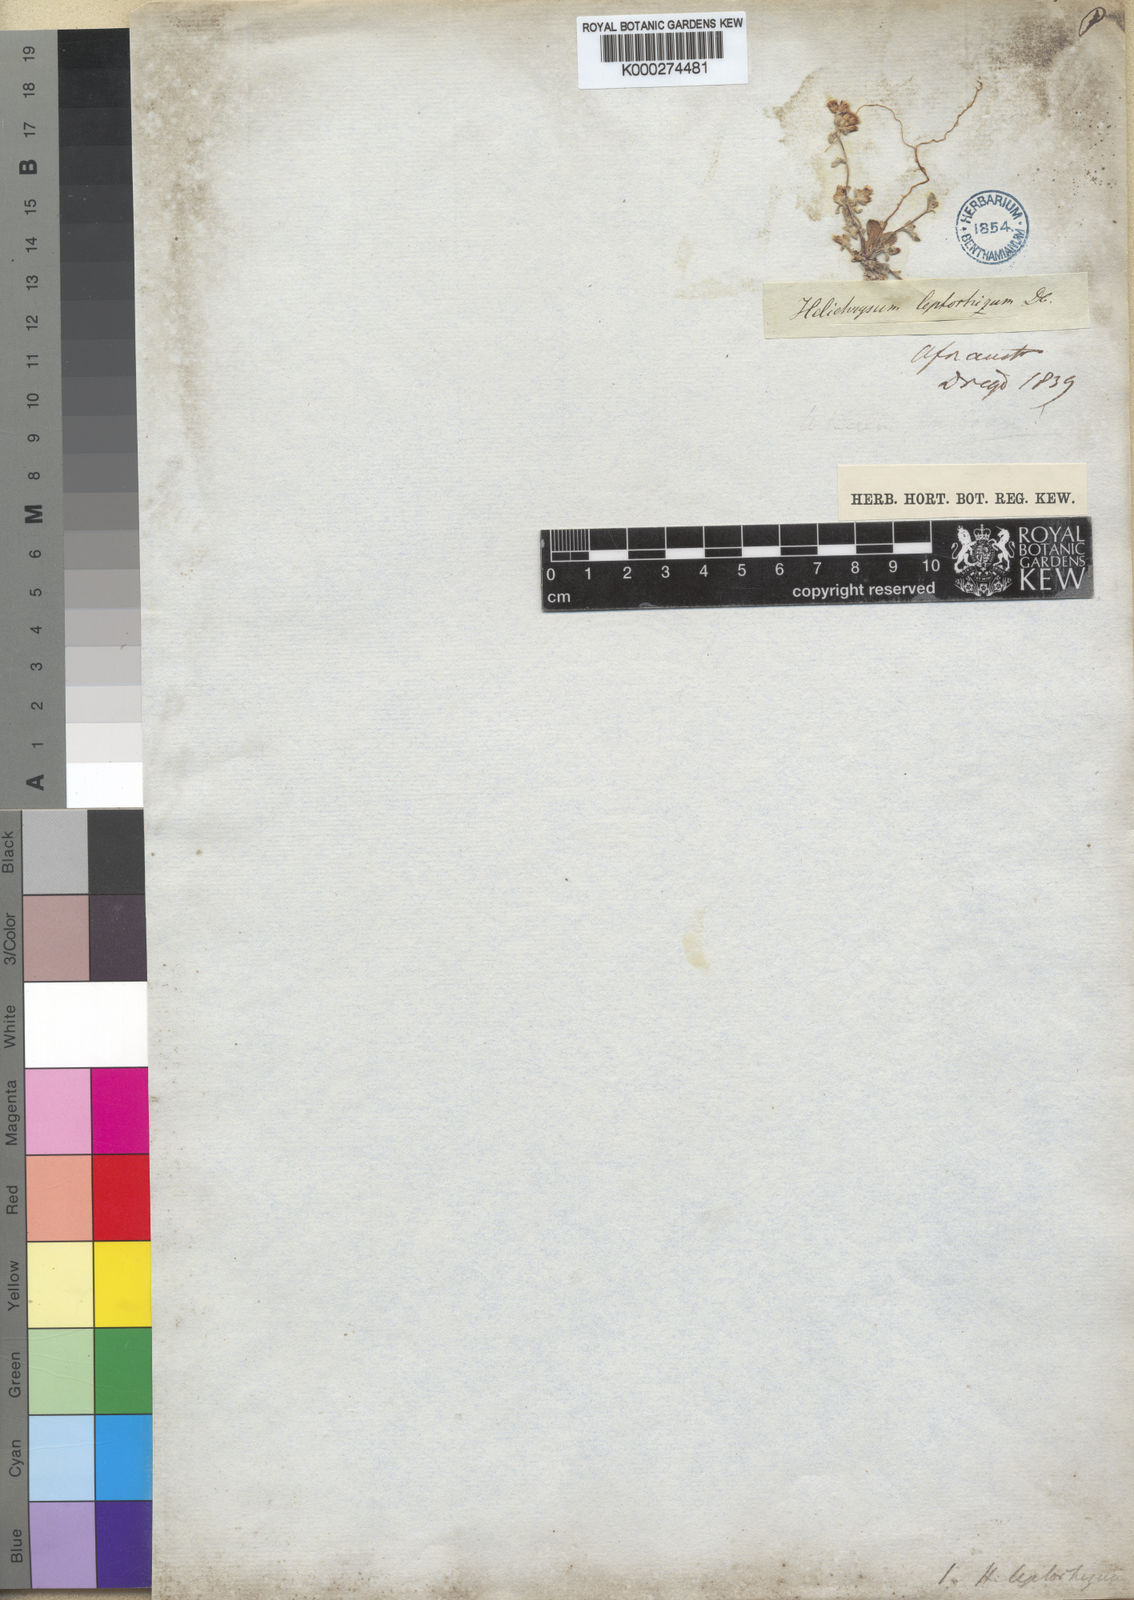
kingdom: Plantae
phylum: Tracheophyta
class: Magnoliopsida
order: Asterales
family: Asteraceae
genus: Helichrysum
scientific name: Helichrysum leptorhizum
